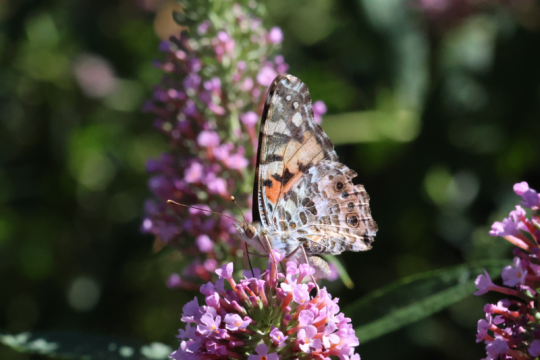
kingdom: Animalia
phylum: Arthropoda
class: Insecta
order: Lepidoptera
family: Nymphalidae
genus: Vanessa
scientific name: Vanessa cardui
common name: Painted Lady
